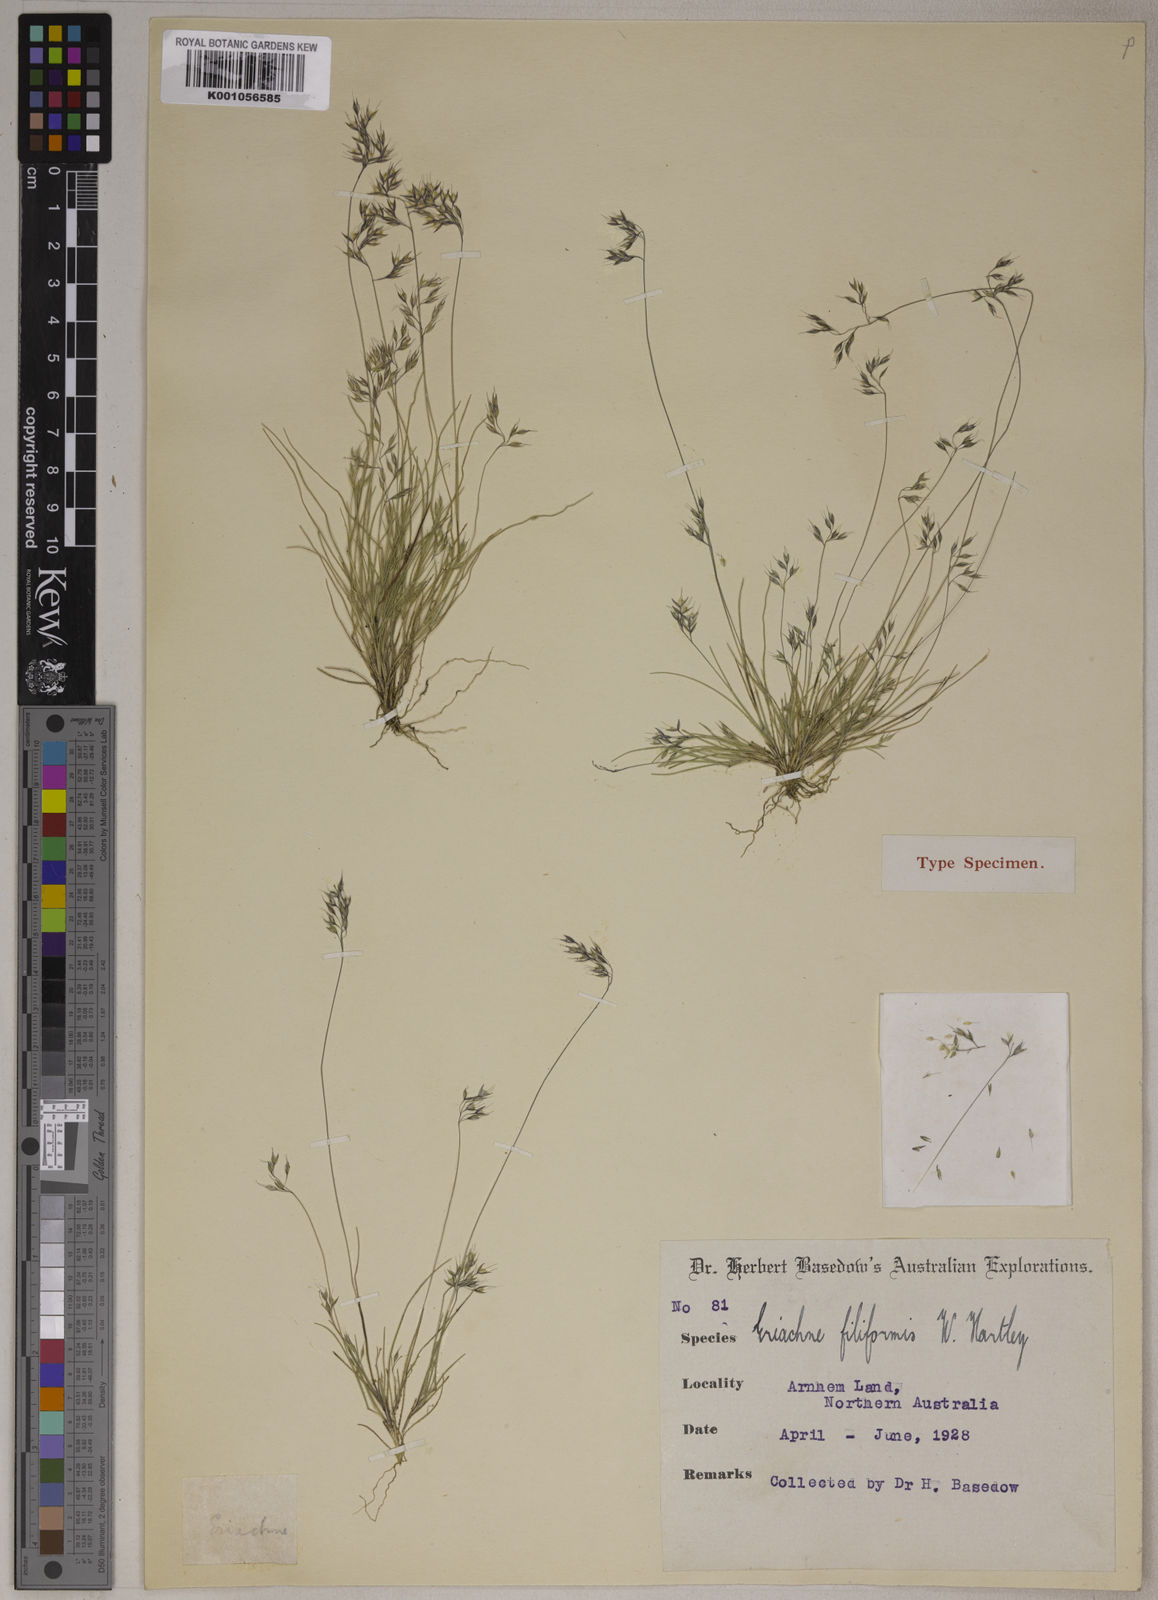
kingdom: Plantae
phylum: Tracheophyta
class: Liliopsida
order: Poales
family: Poaceae
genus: Eriachne
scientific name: Eriachne filiformis
